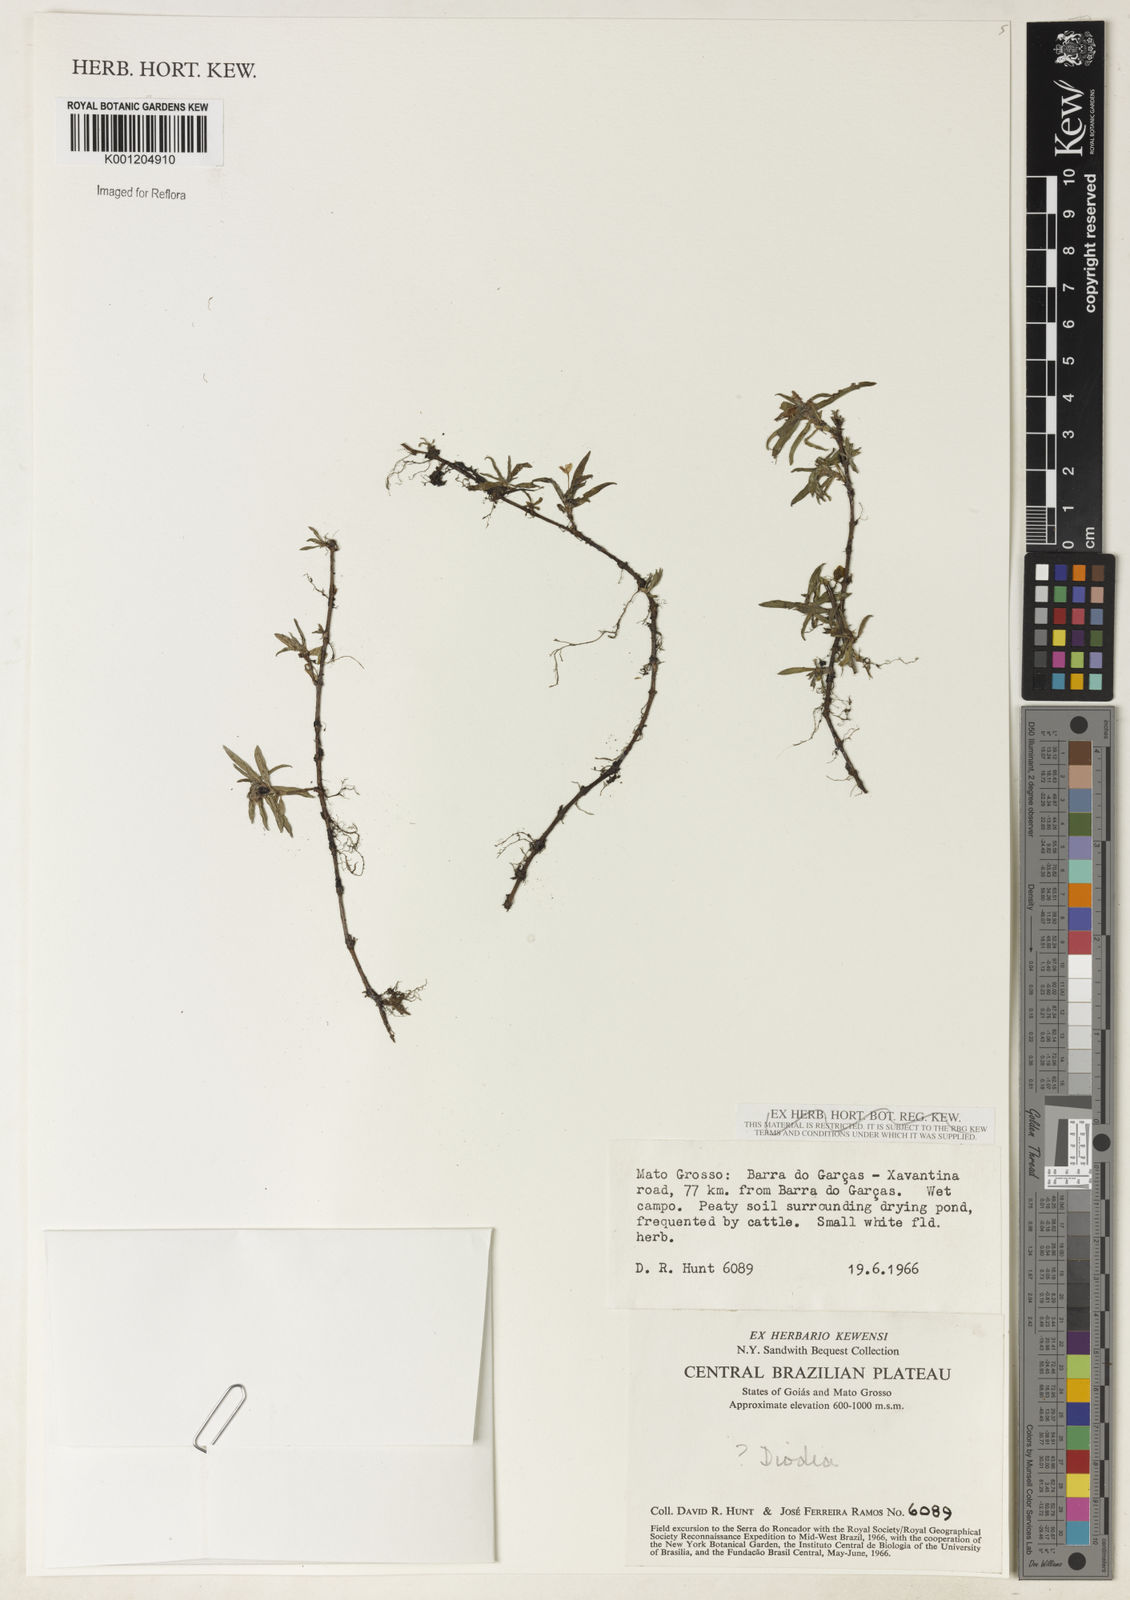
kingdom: Plantae
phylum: Tracheophyta
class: Magnoliopsida
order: Gentianales
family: Rubiaceae
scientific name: Rubiaceae
